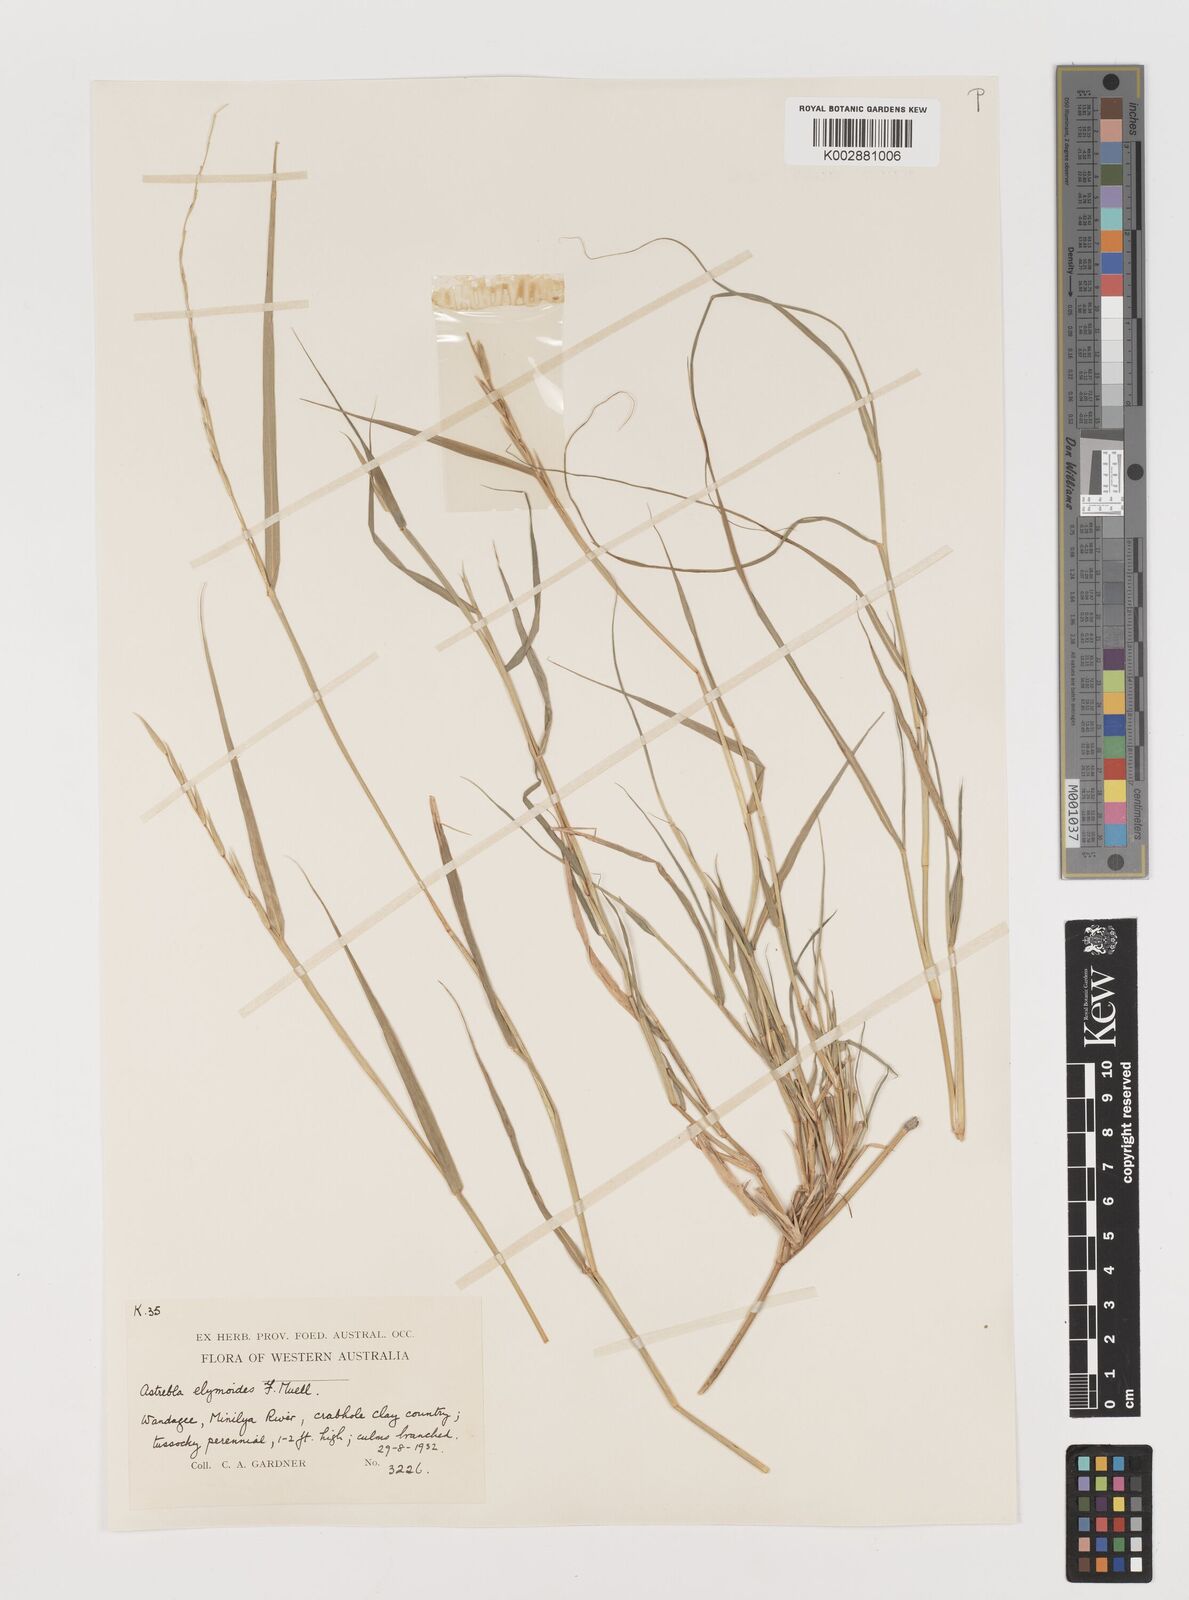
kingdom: Plantae
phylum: Tracheophyta
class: Liliopsida
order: Poales
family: Poaceae
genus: Astrebla
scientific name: Astrebla elymoides
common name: Hoop mitchell grass
